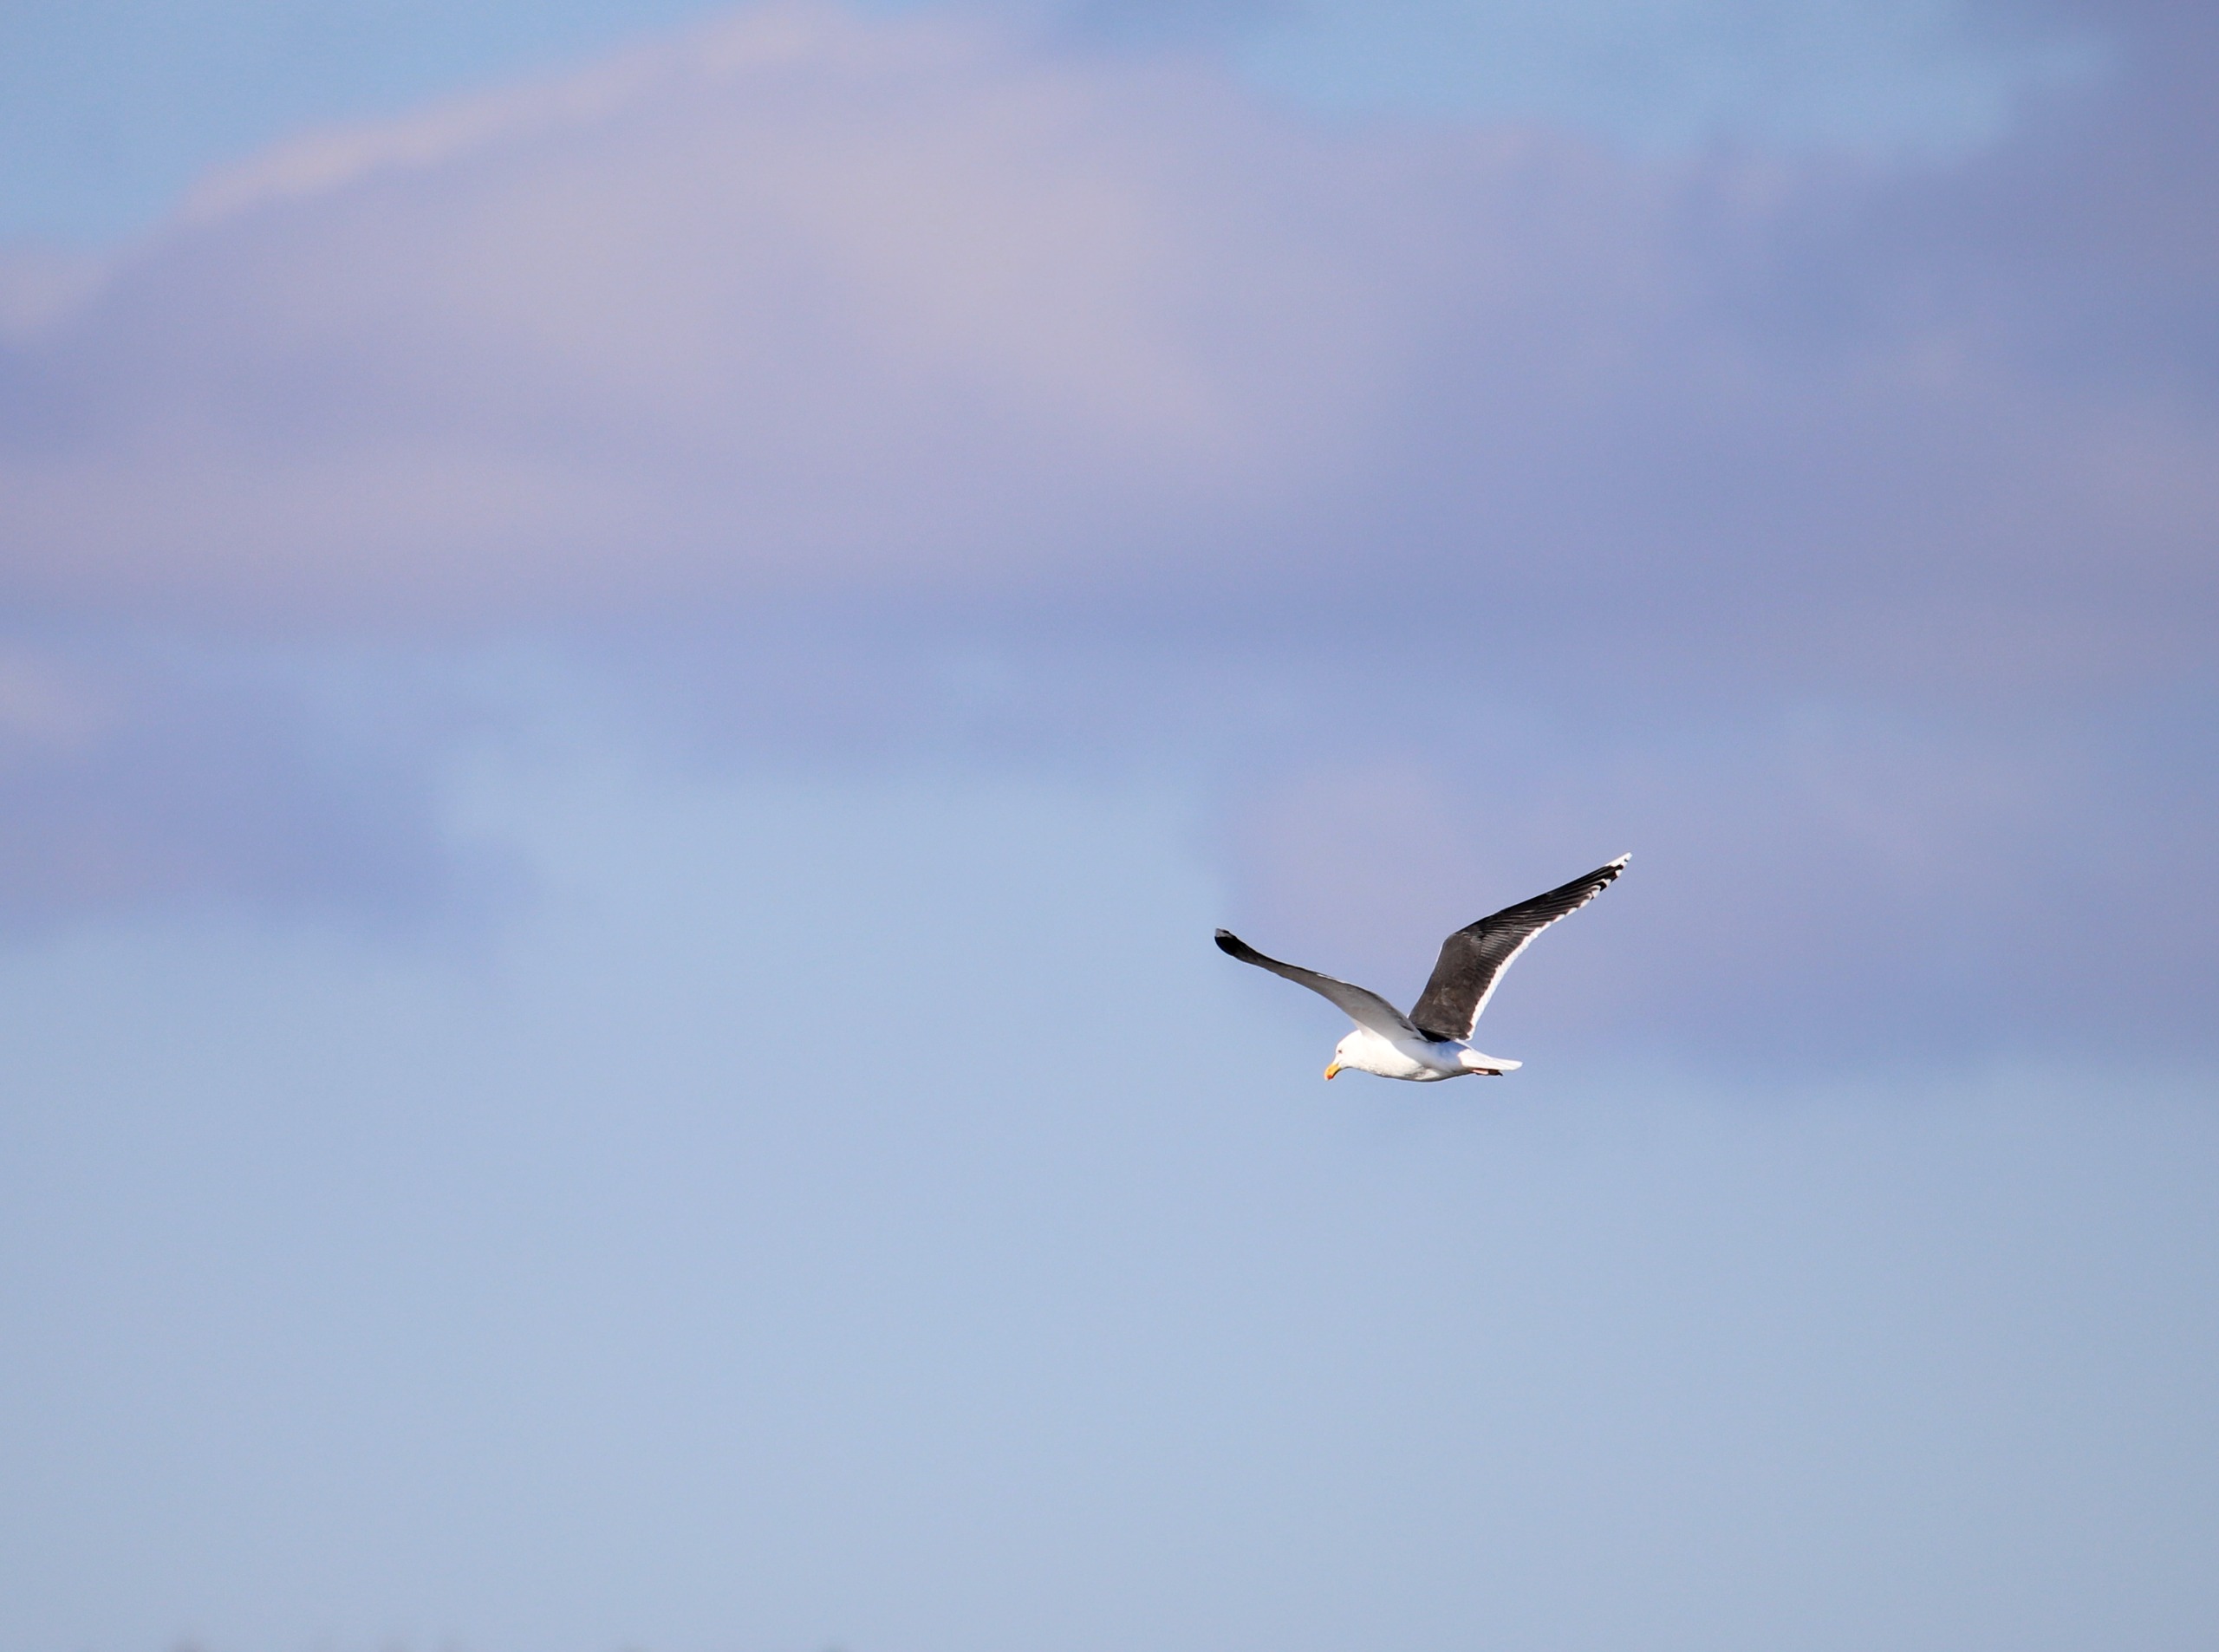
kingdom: Animalia
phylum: Chordata
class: Aves
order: Charadriiformes
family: Laridae
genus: Larus
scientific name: Larus marinus
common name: Svartbag
